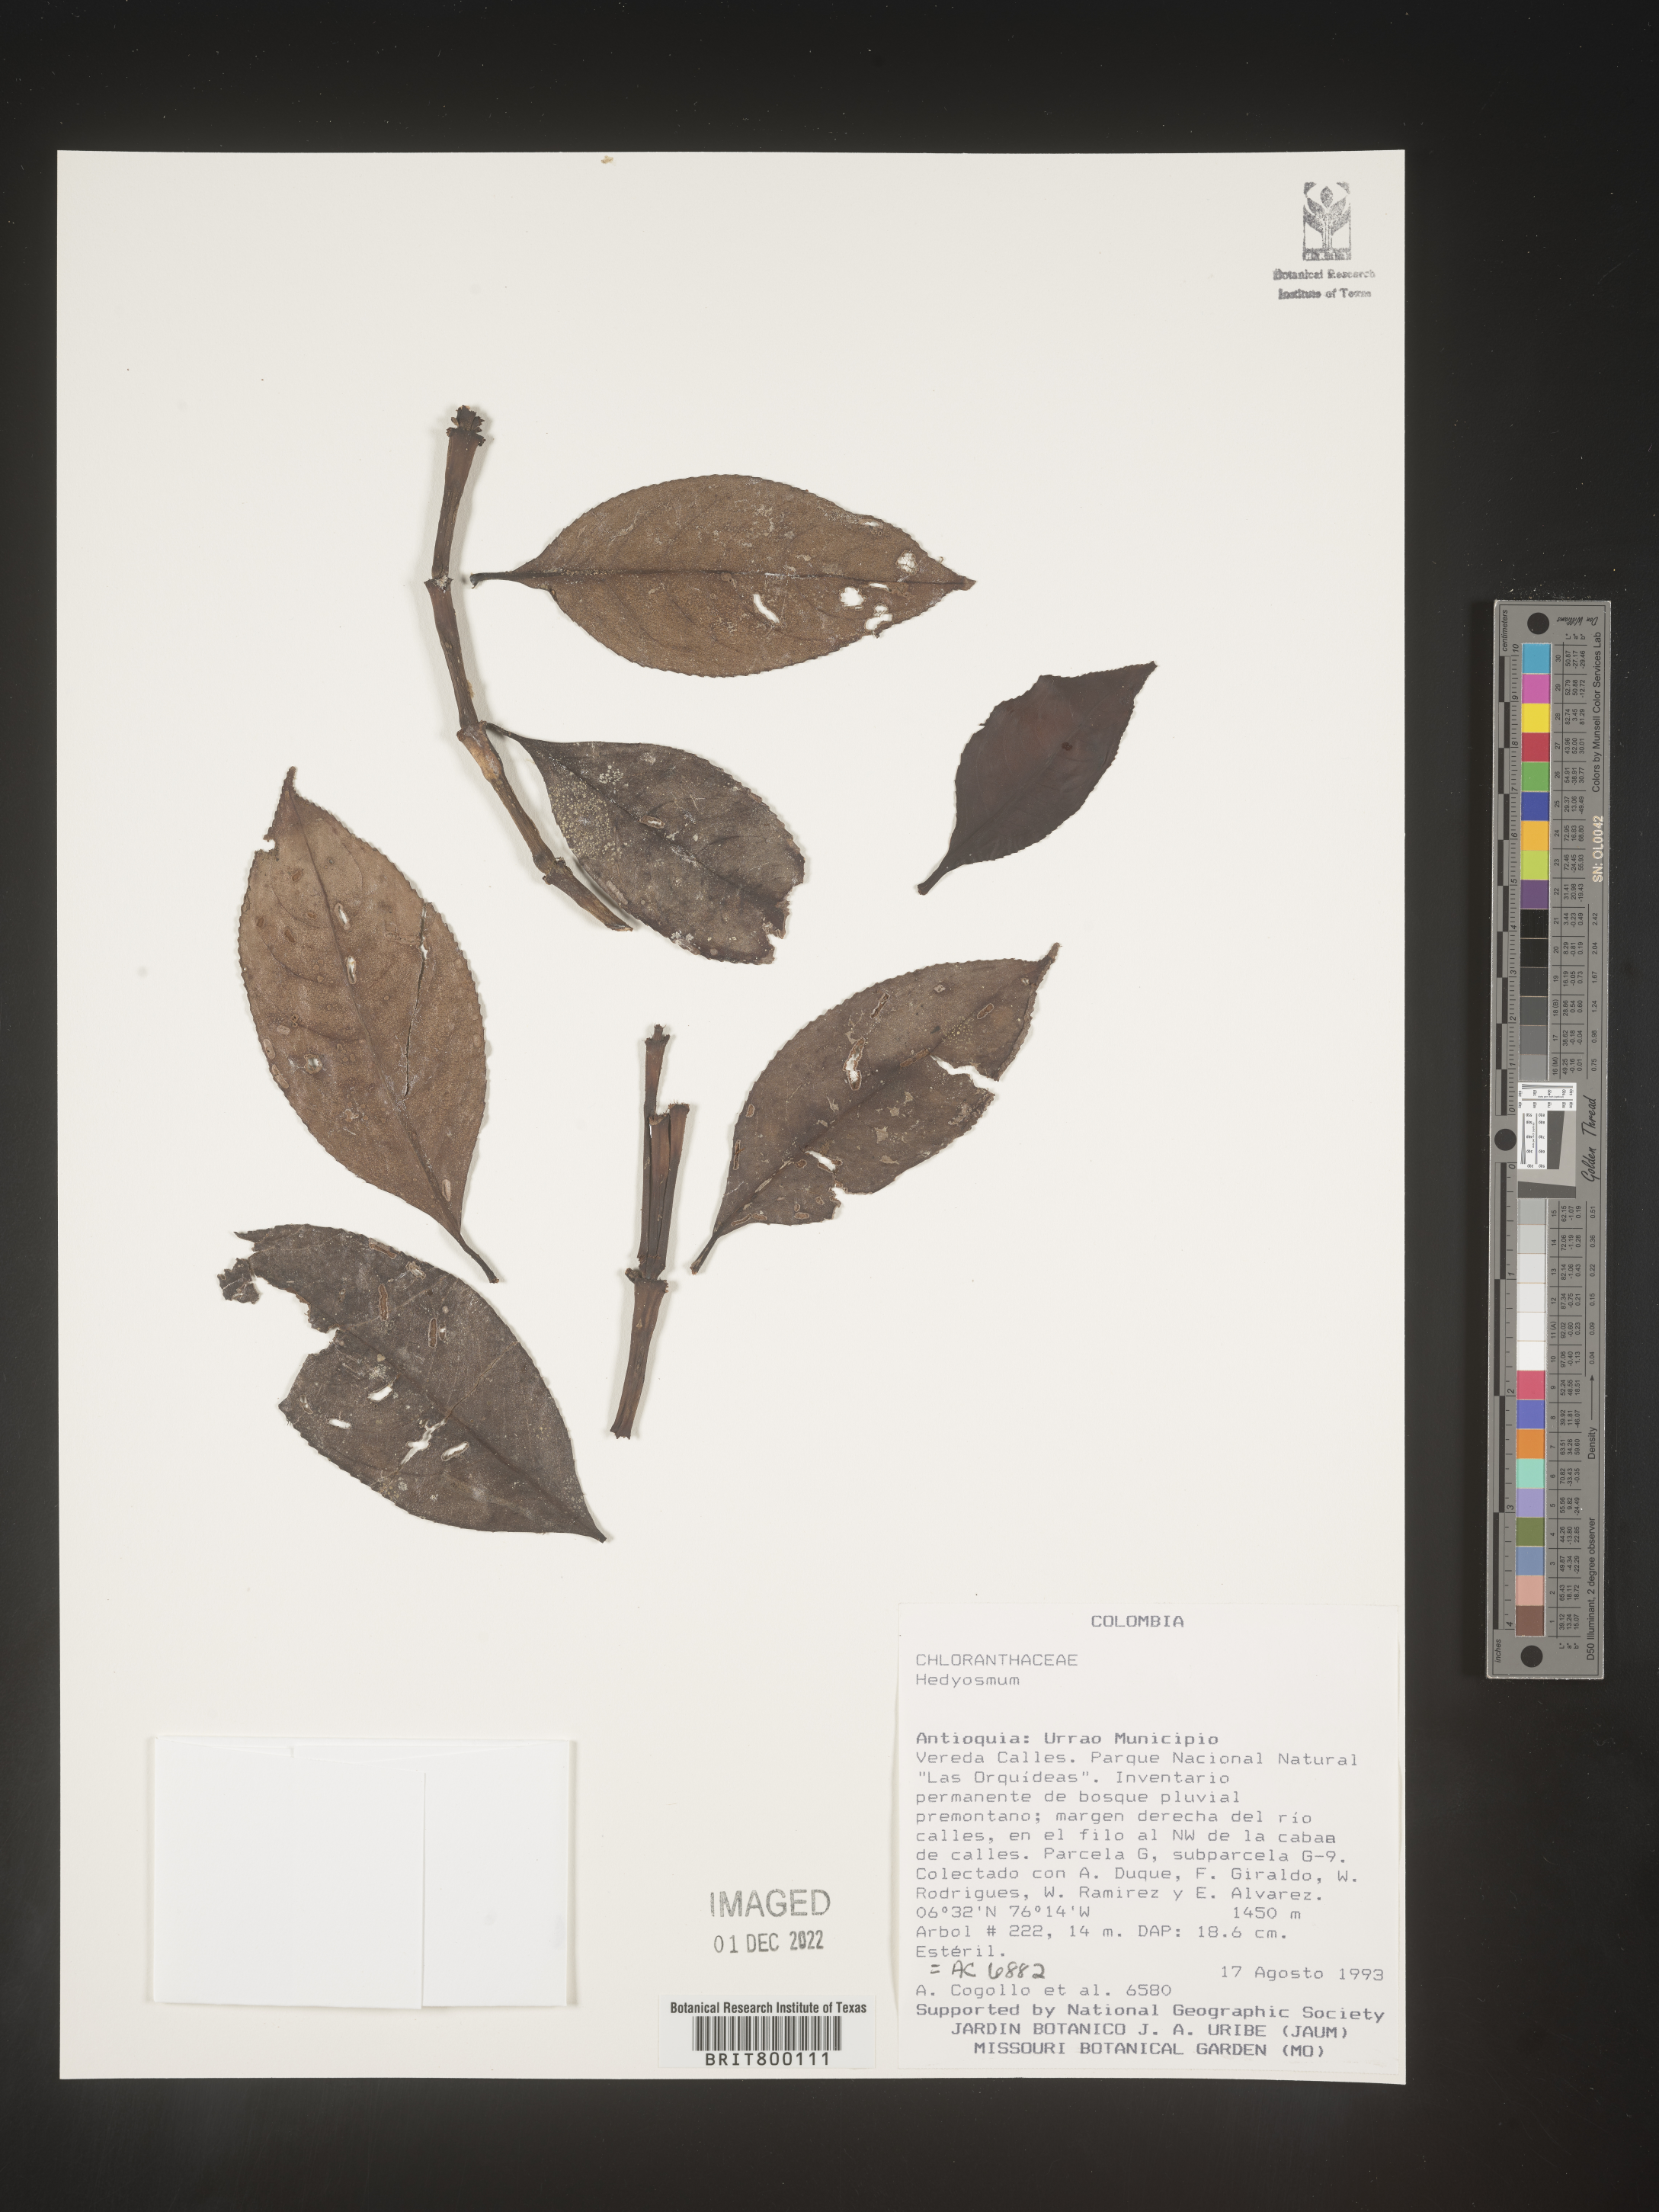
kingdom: Plantae
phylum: Tracheophyta
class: Magnoliopsida
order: Chloranthales
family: Chloranthaceae
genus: Hedyosmum
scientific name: Hedyosmum
